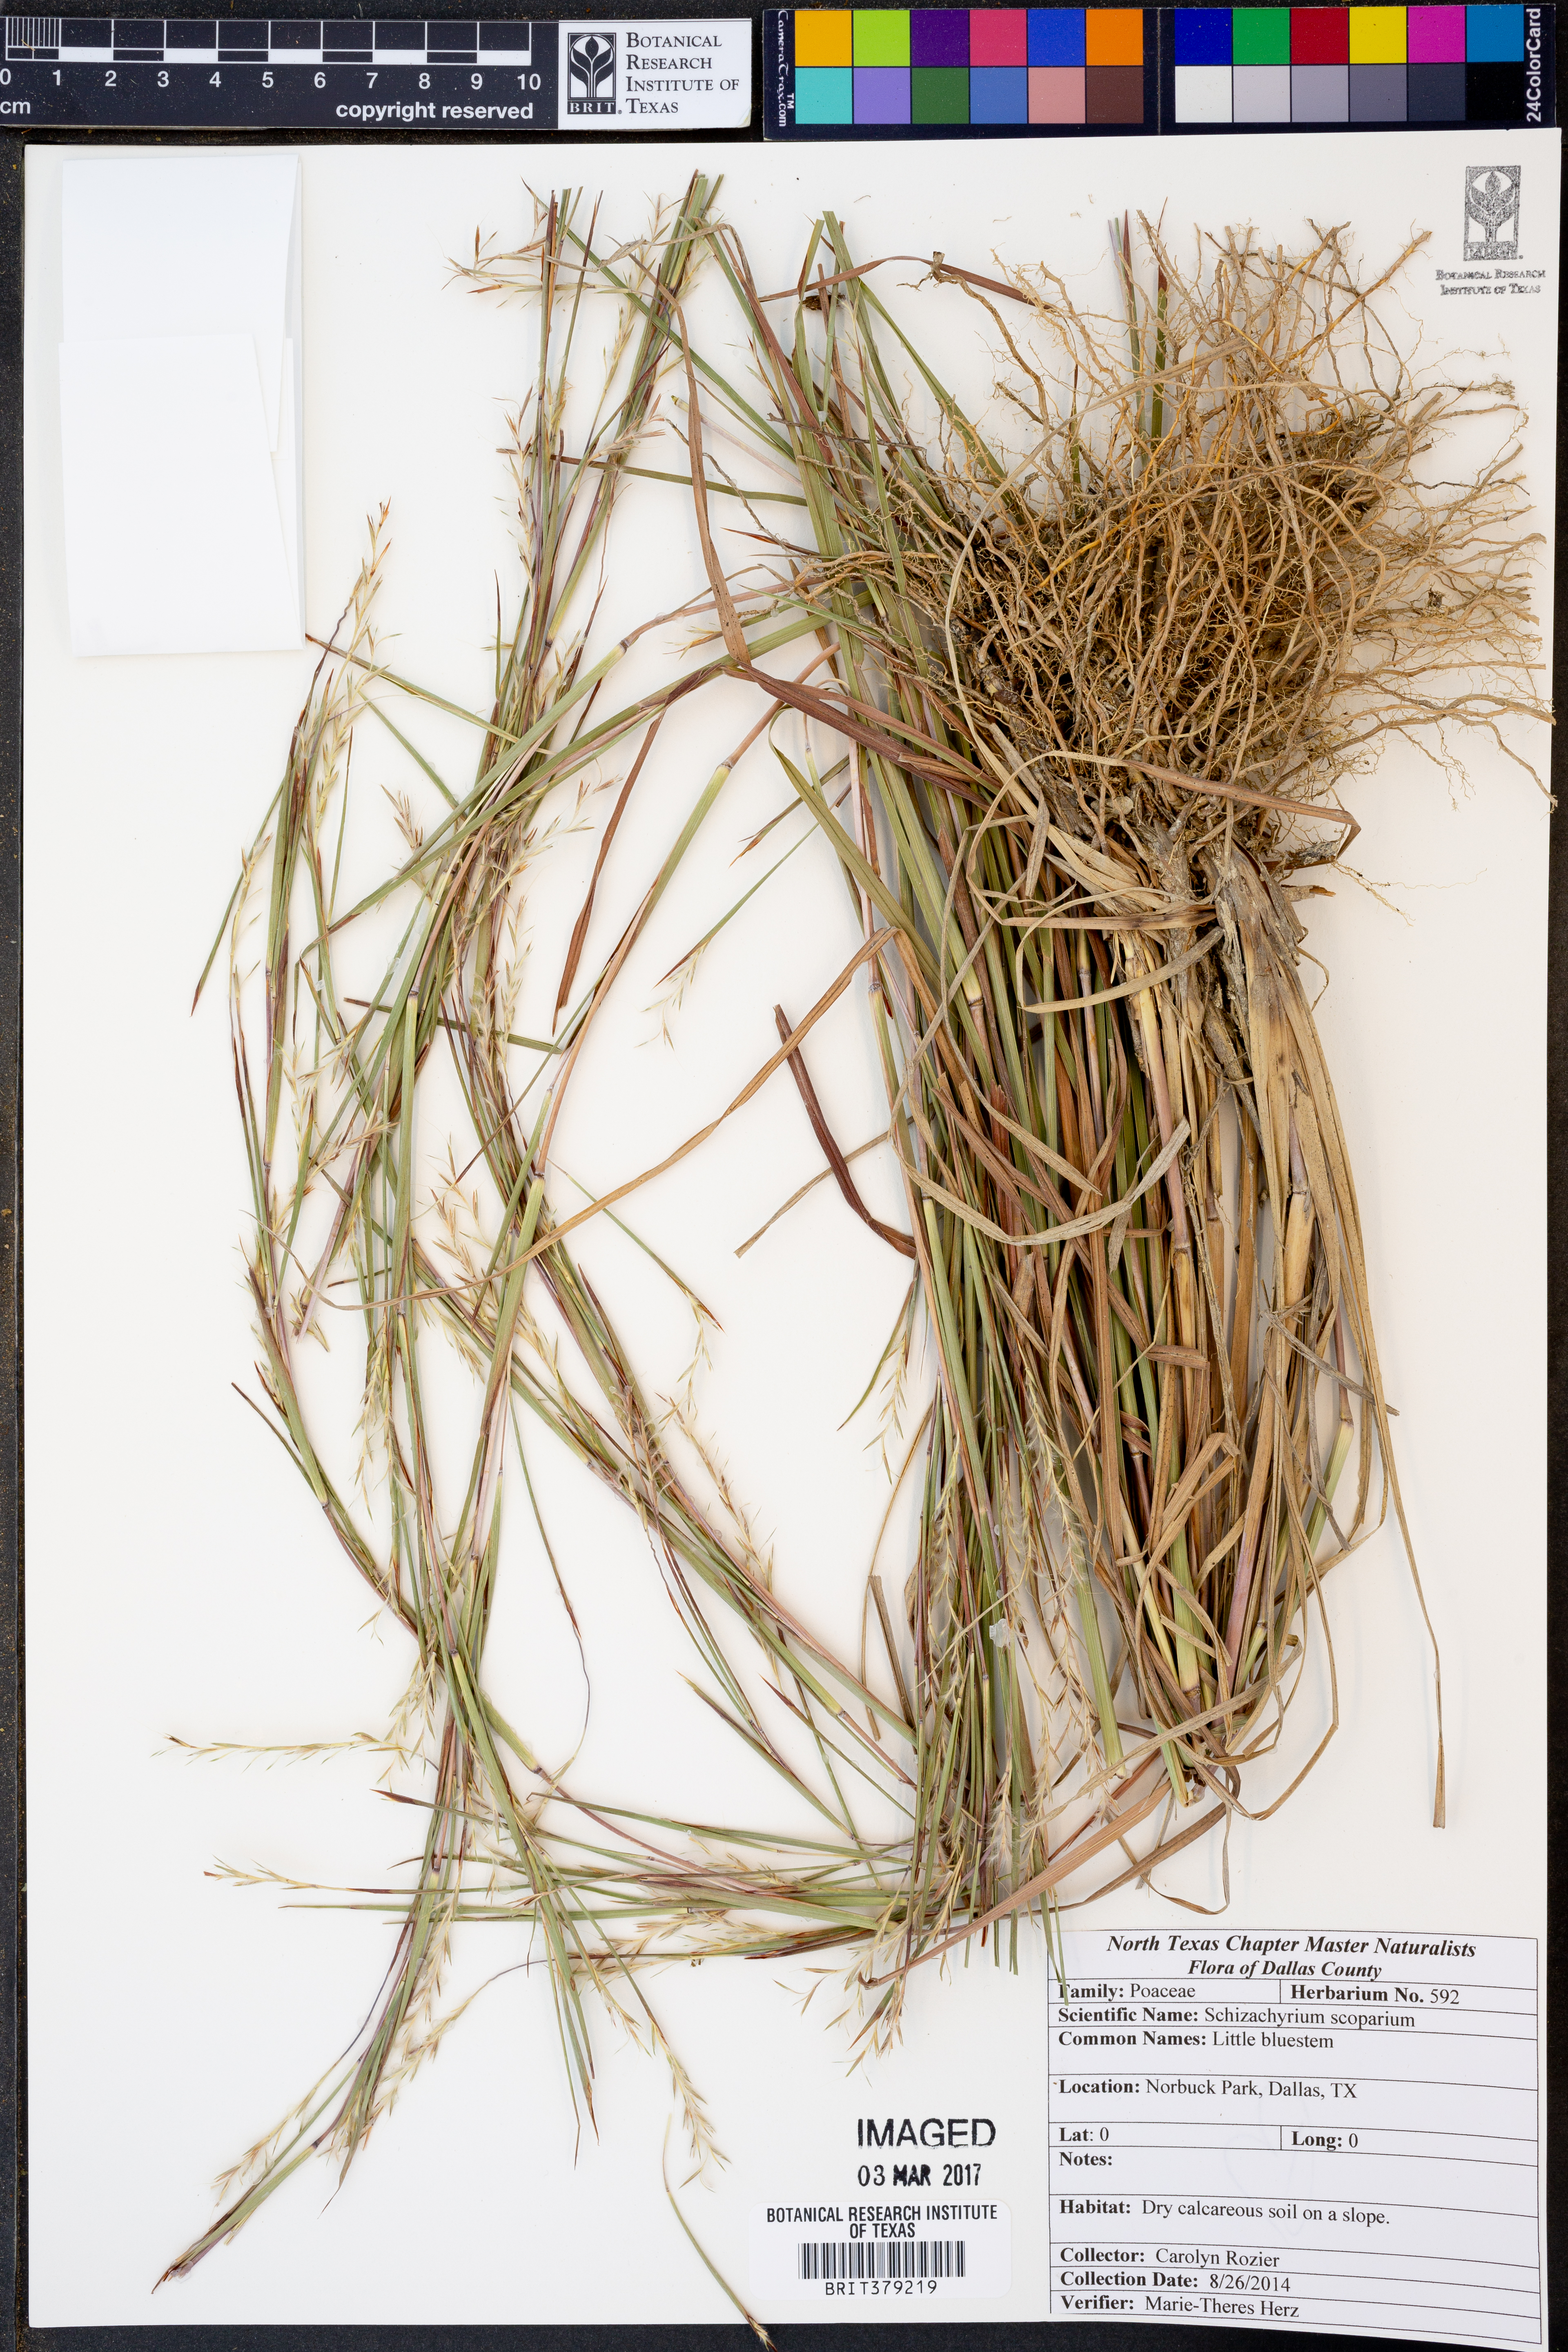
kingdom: Plantae
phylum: Tracheophyta
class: Liliopsida
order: Poales
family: Poaceae
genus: Schizachyrium
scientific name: Schizachyrium scoparium
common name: Little bluestem
